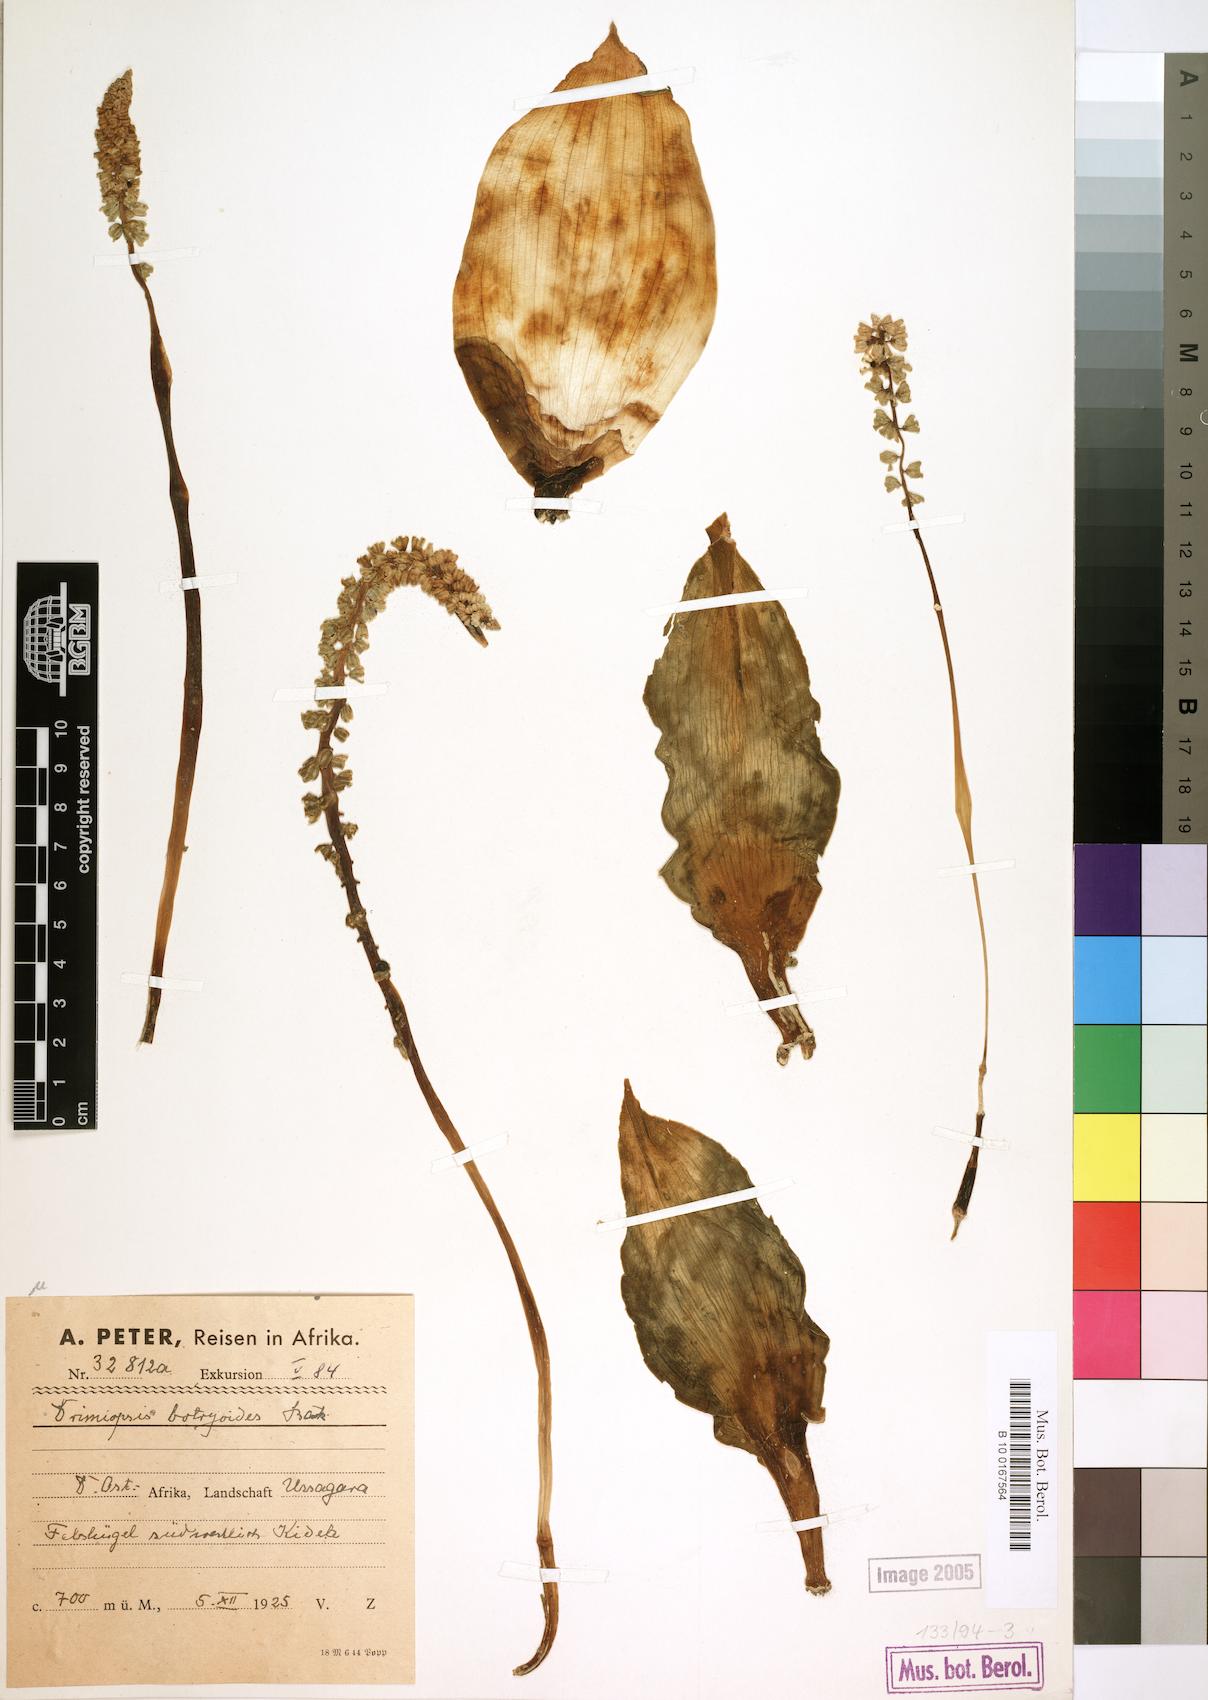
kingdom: Plantae
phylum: Tracheophyta
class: Liliopsida
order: Asparagales
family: Asparagaceae
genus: Drimiopsis
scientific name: Drimiopsis botryoides
